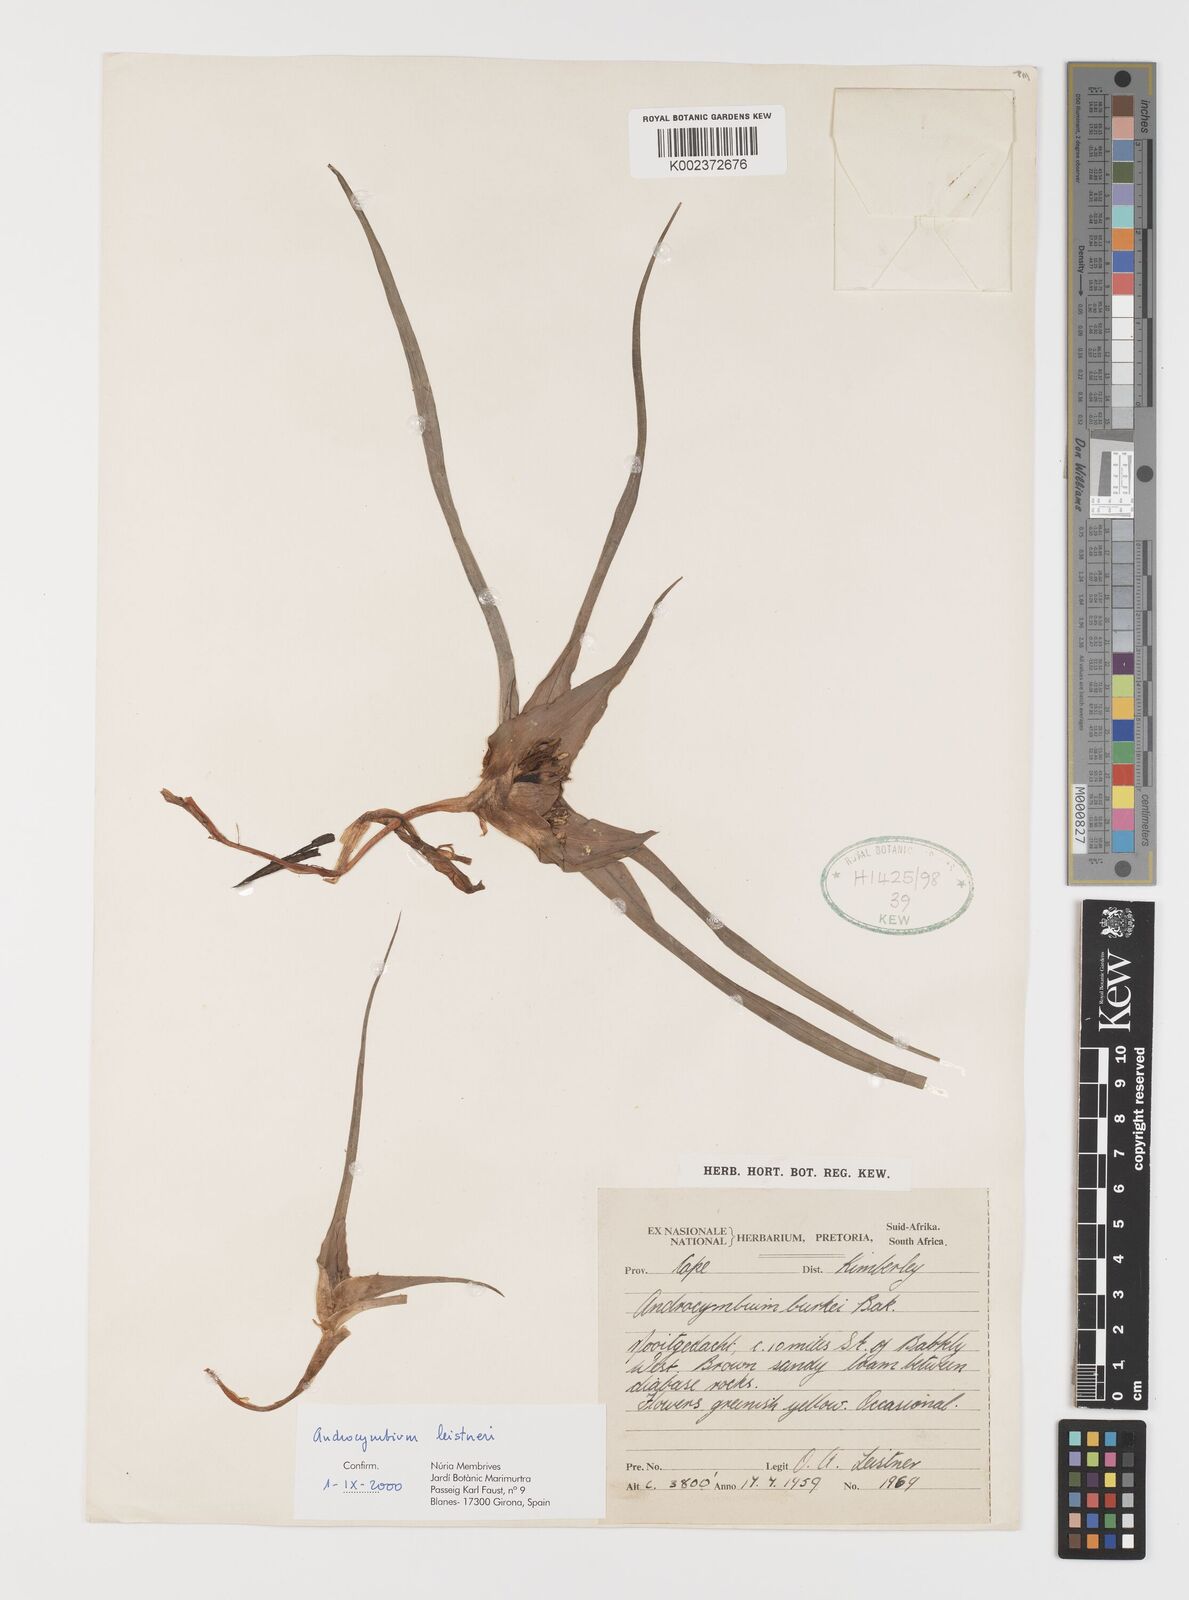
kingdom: Plantae
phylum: Tracheophyta
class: Liliopsida
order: Liliales
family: Colchicaceae
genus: Colchicum
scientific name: Colchicum leistneri
